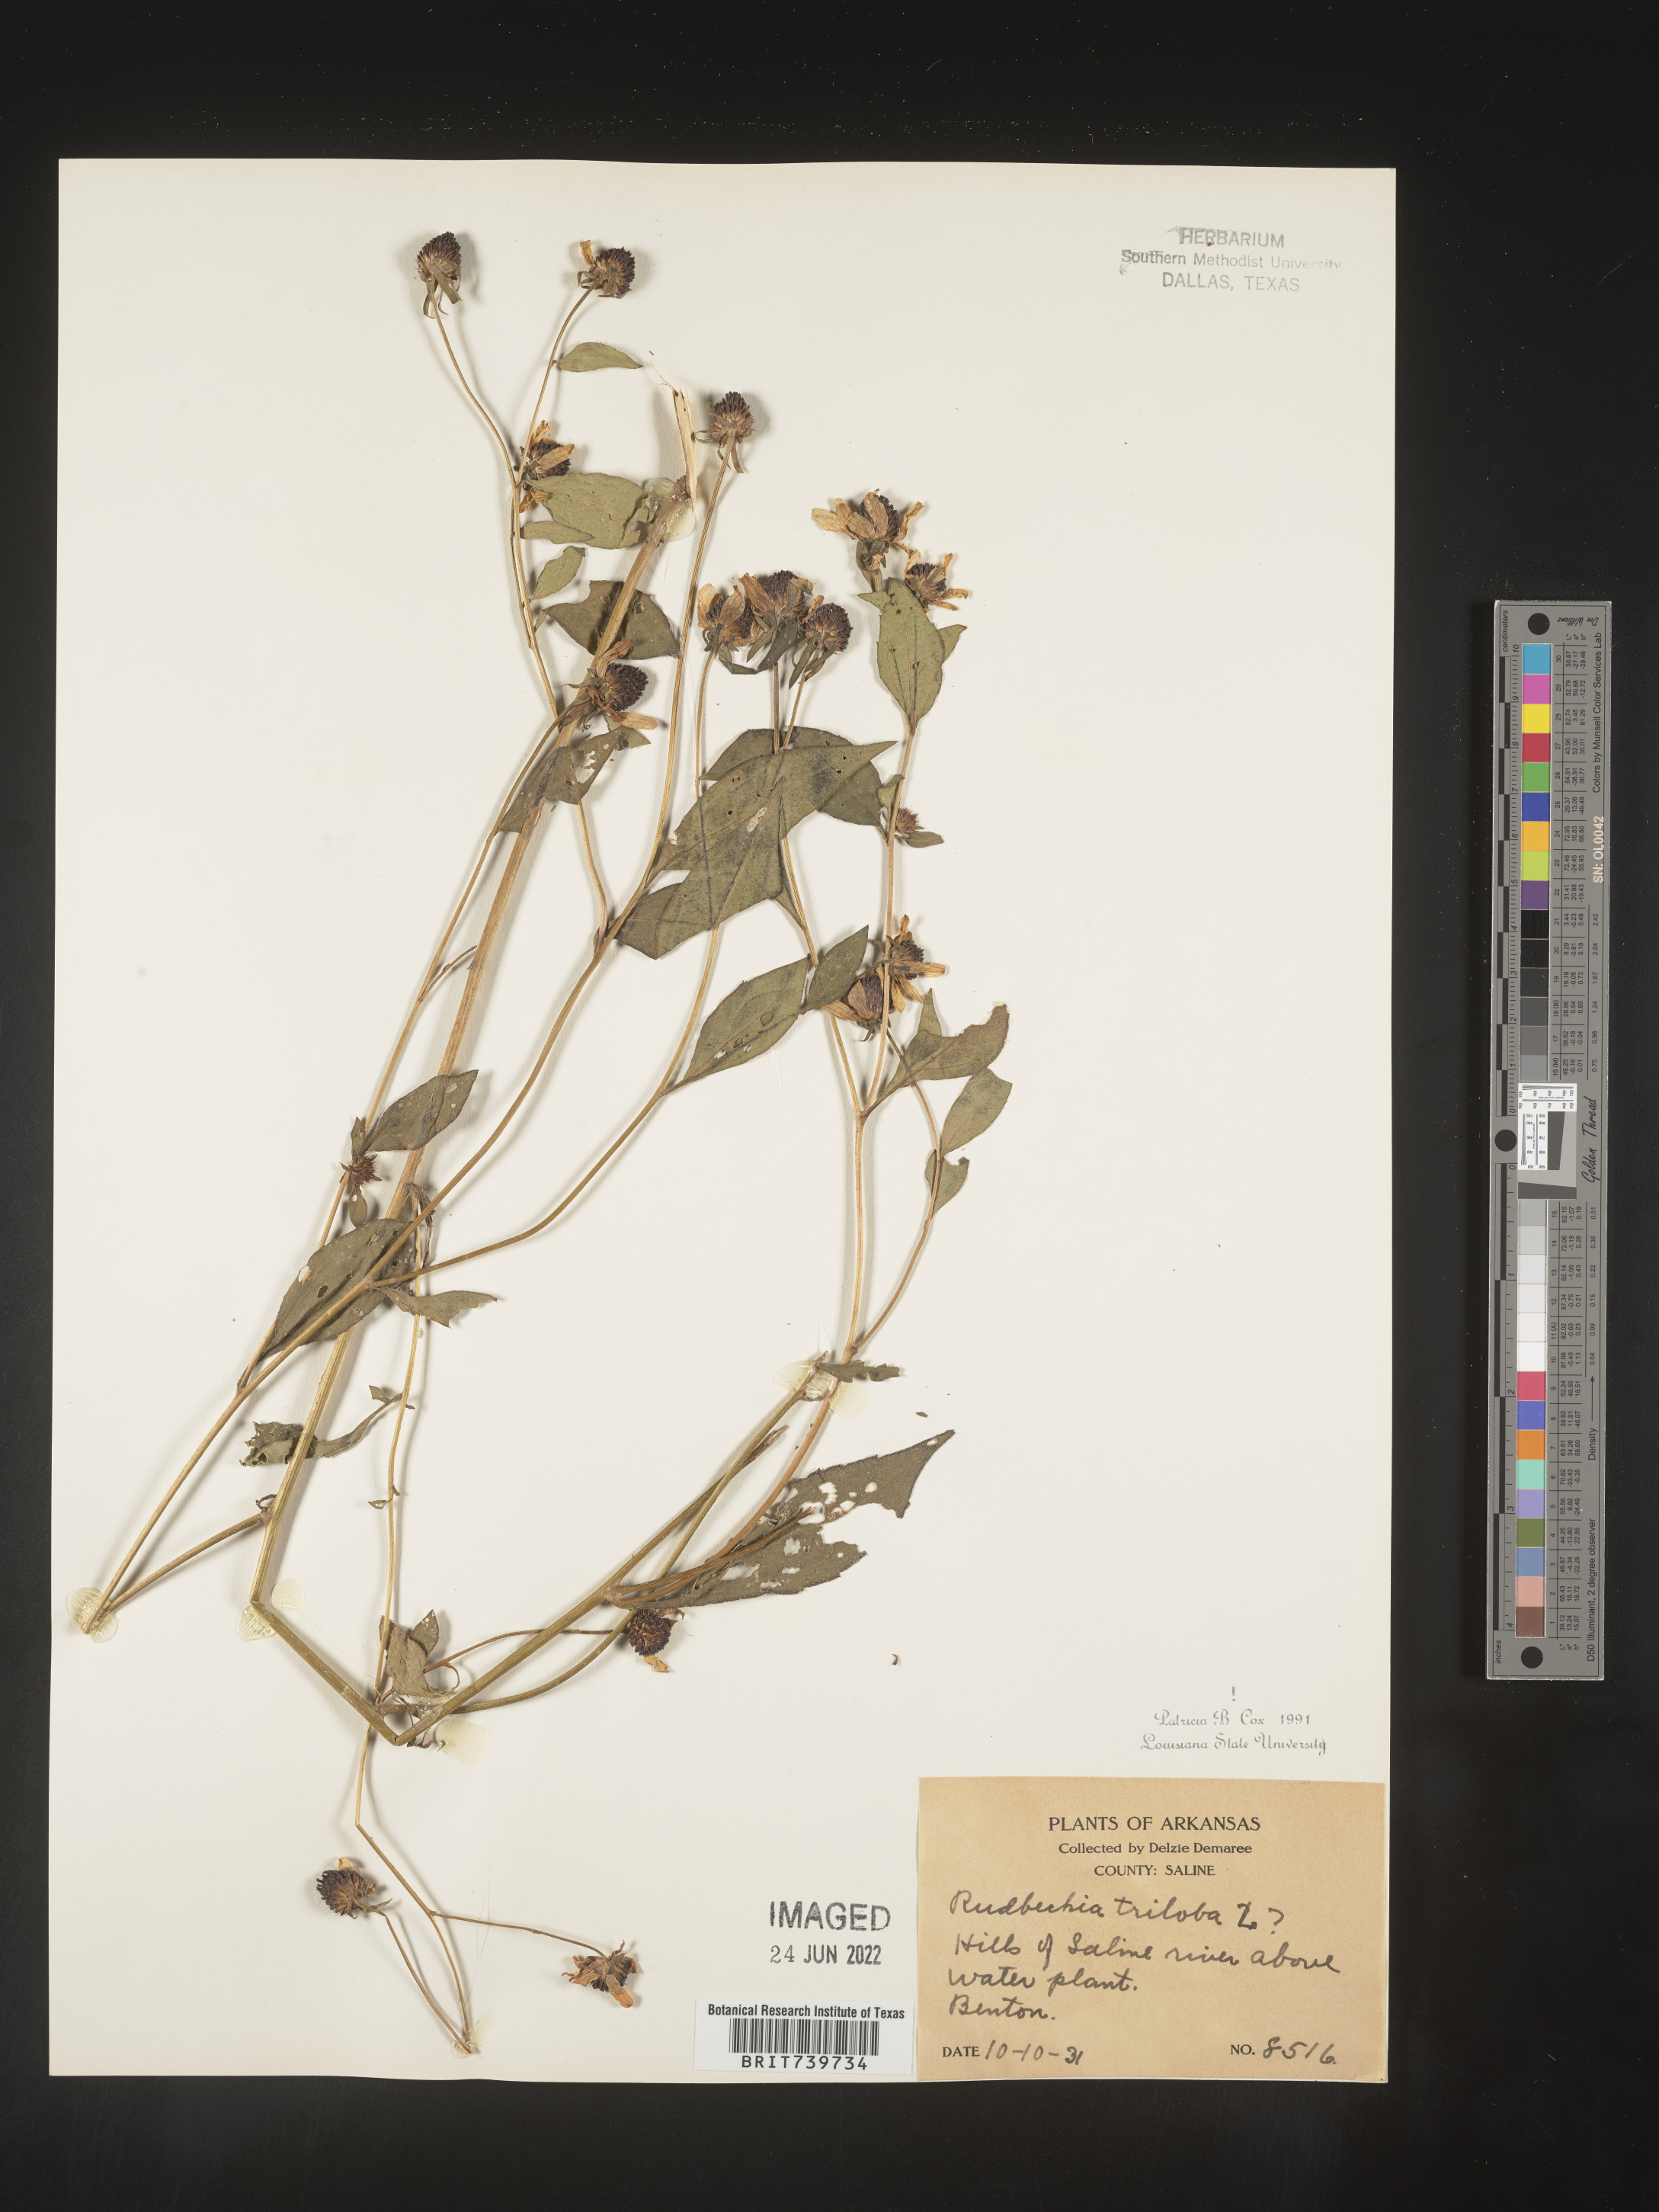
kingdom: Plantae
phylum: Tracheophyta
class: Magnoliopsida
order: Asterales
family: Asteraceae
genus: Rudbeckia
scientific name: Rudbeckia triloba
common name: Thin-leaved coneflower
